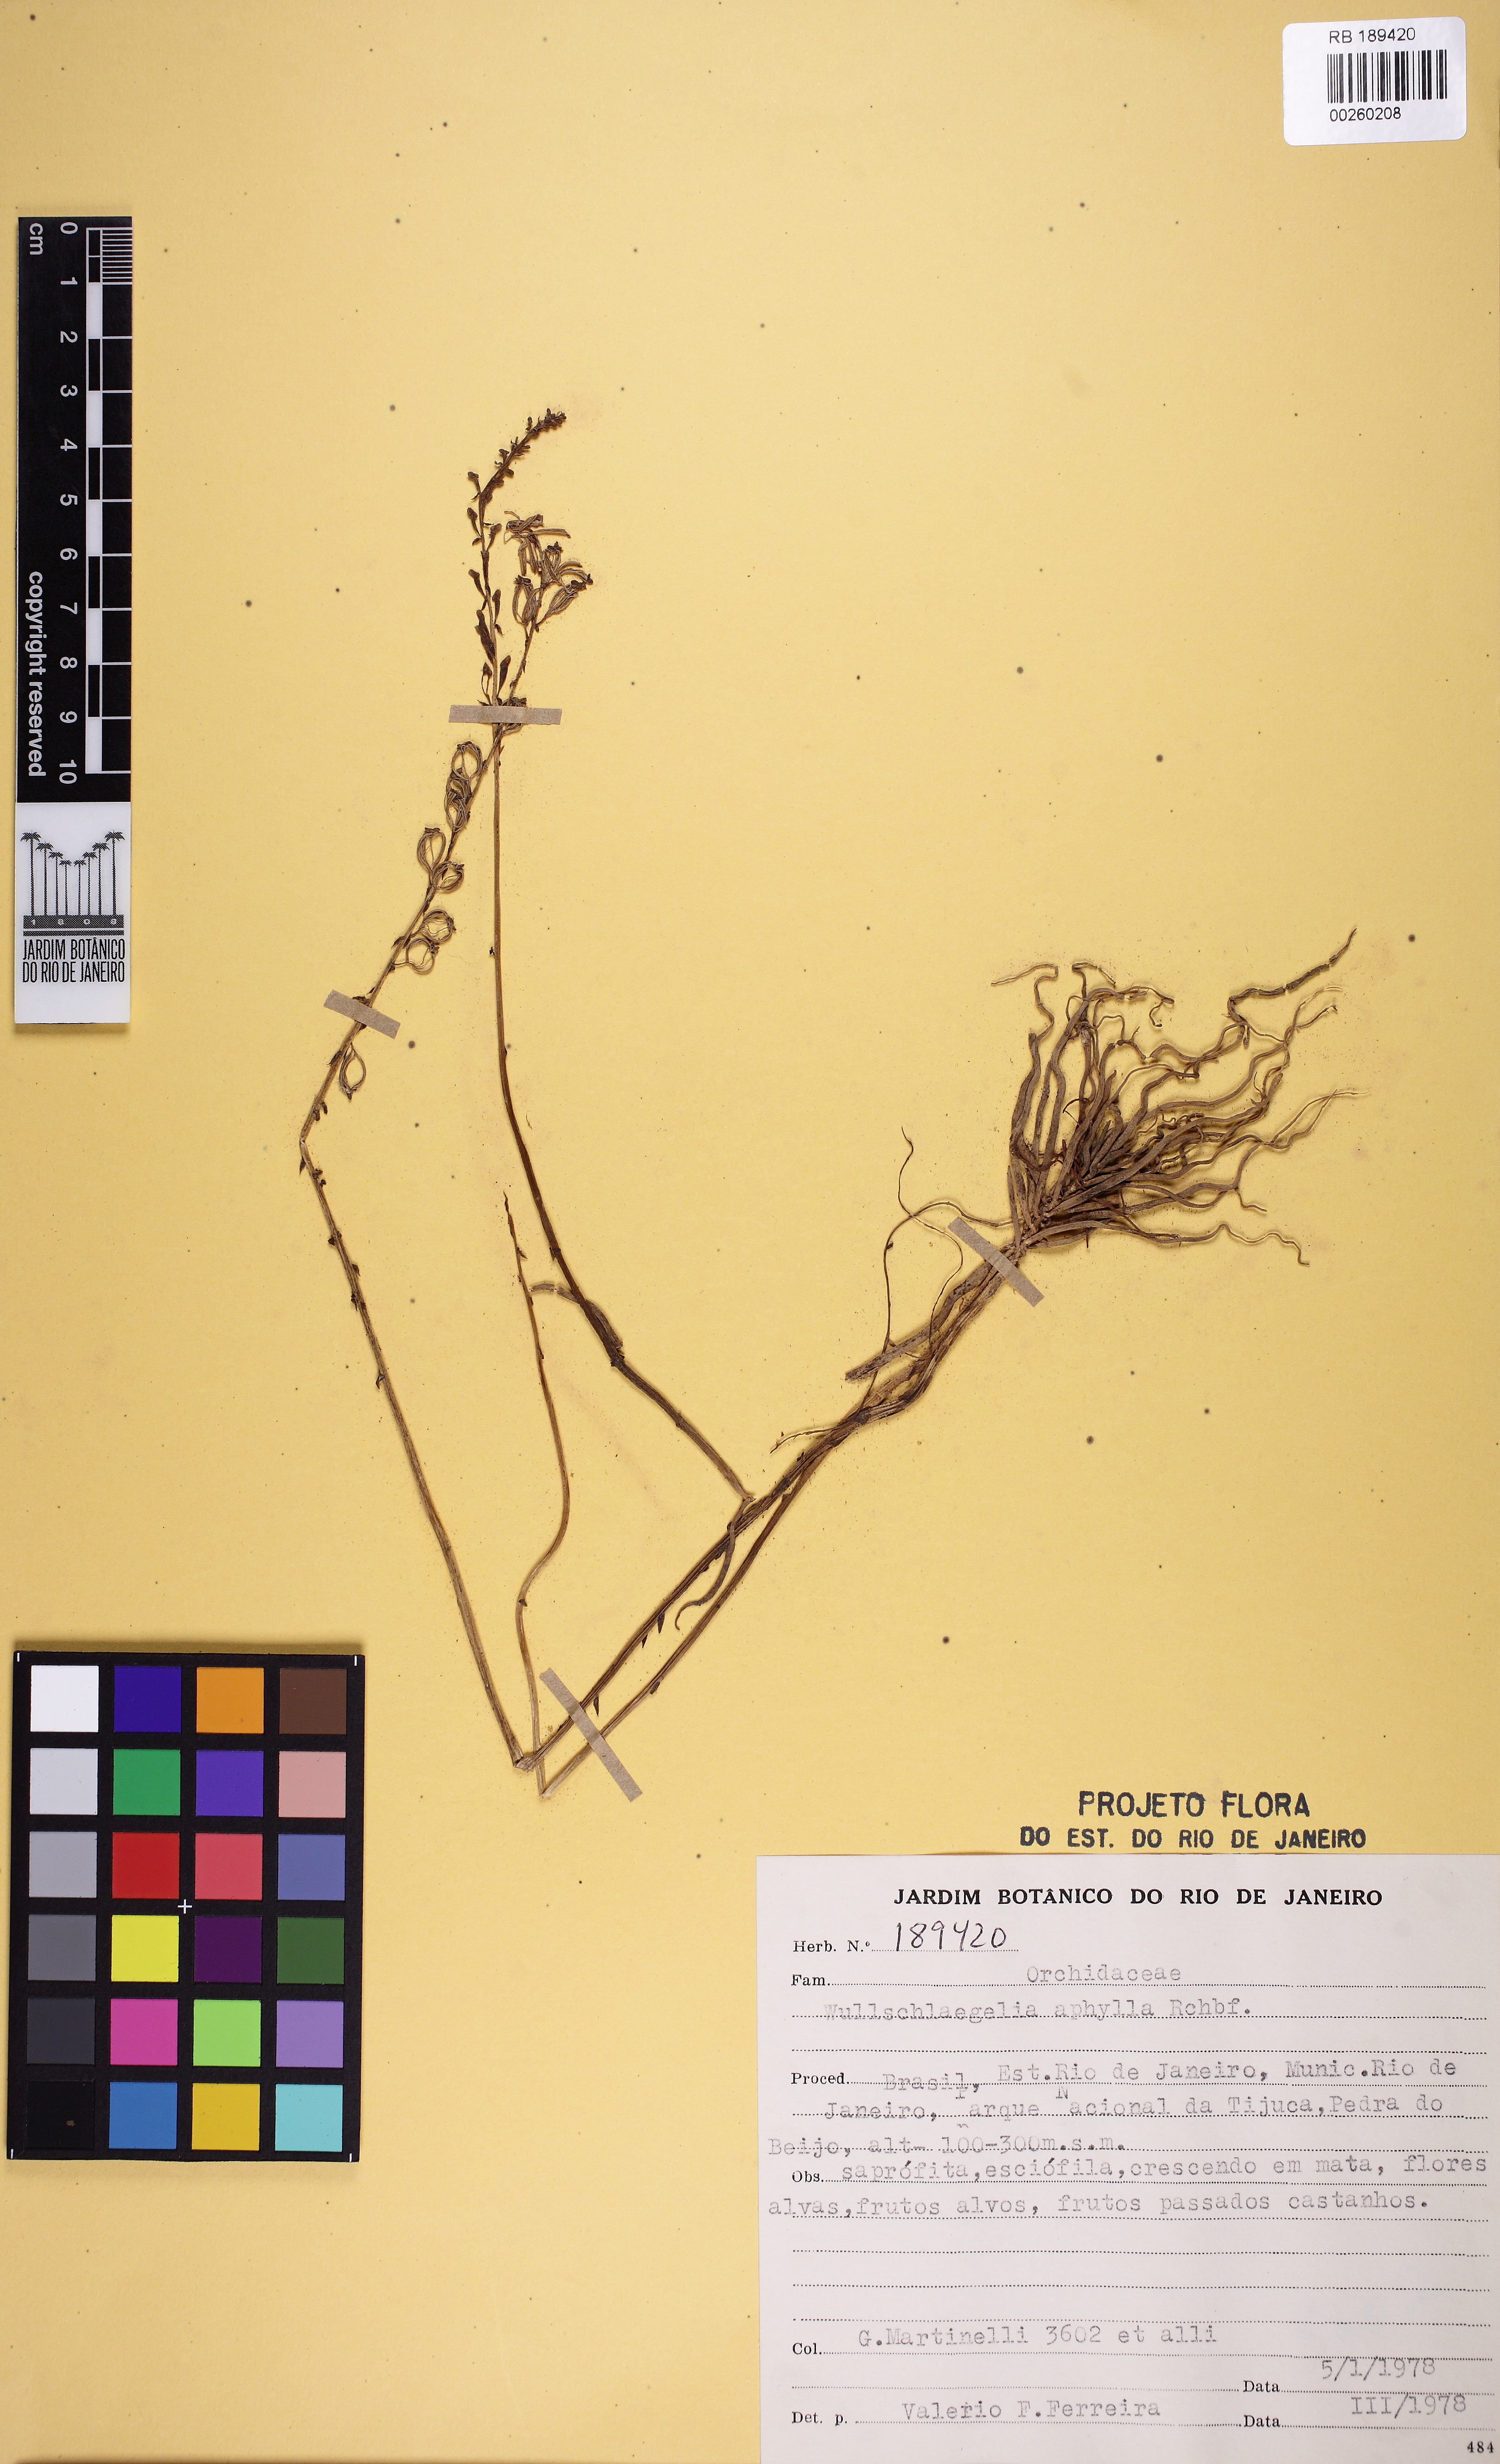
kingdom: Plantae
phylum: Tracheophyta
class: Liliopsida
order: Asparagales
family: Orchidaceae
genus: Wullschlaegelia
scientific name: Wullschlaegelia aphylla
